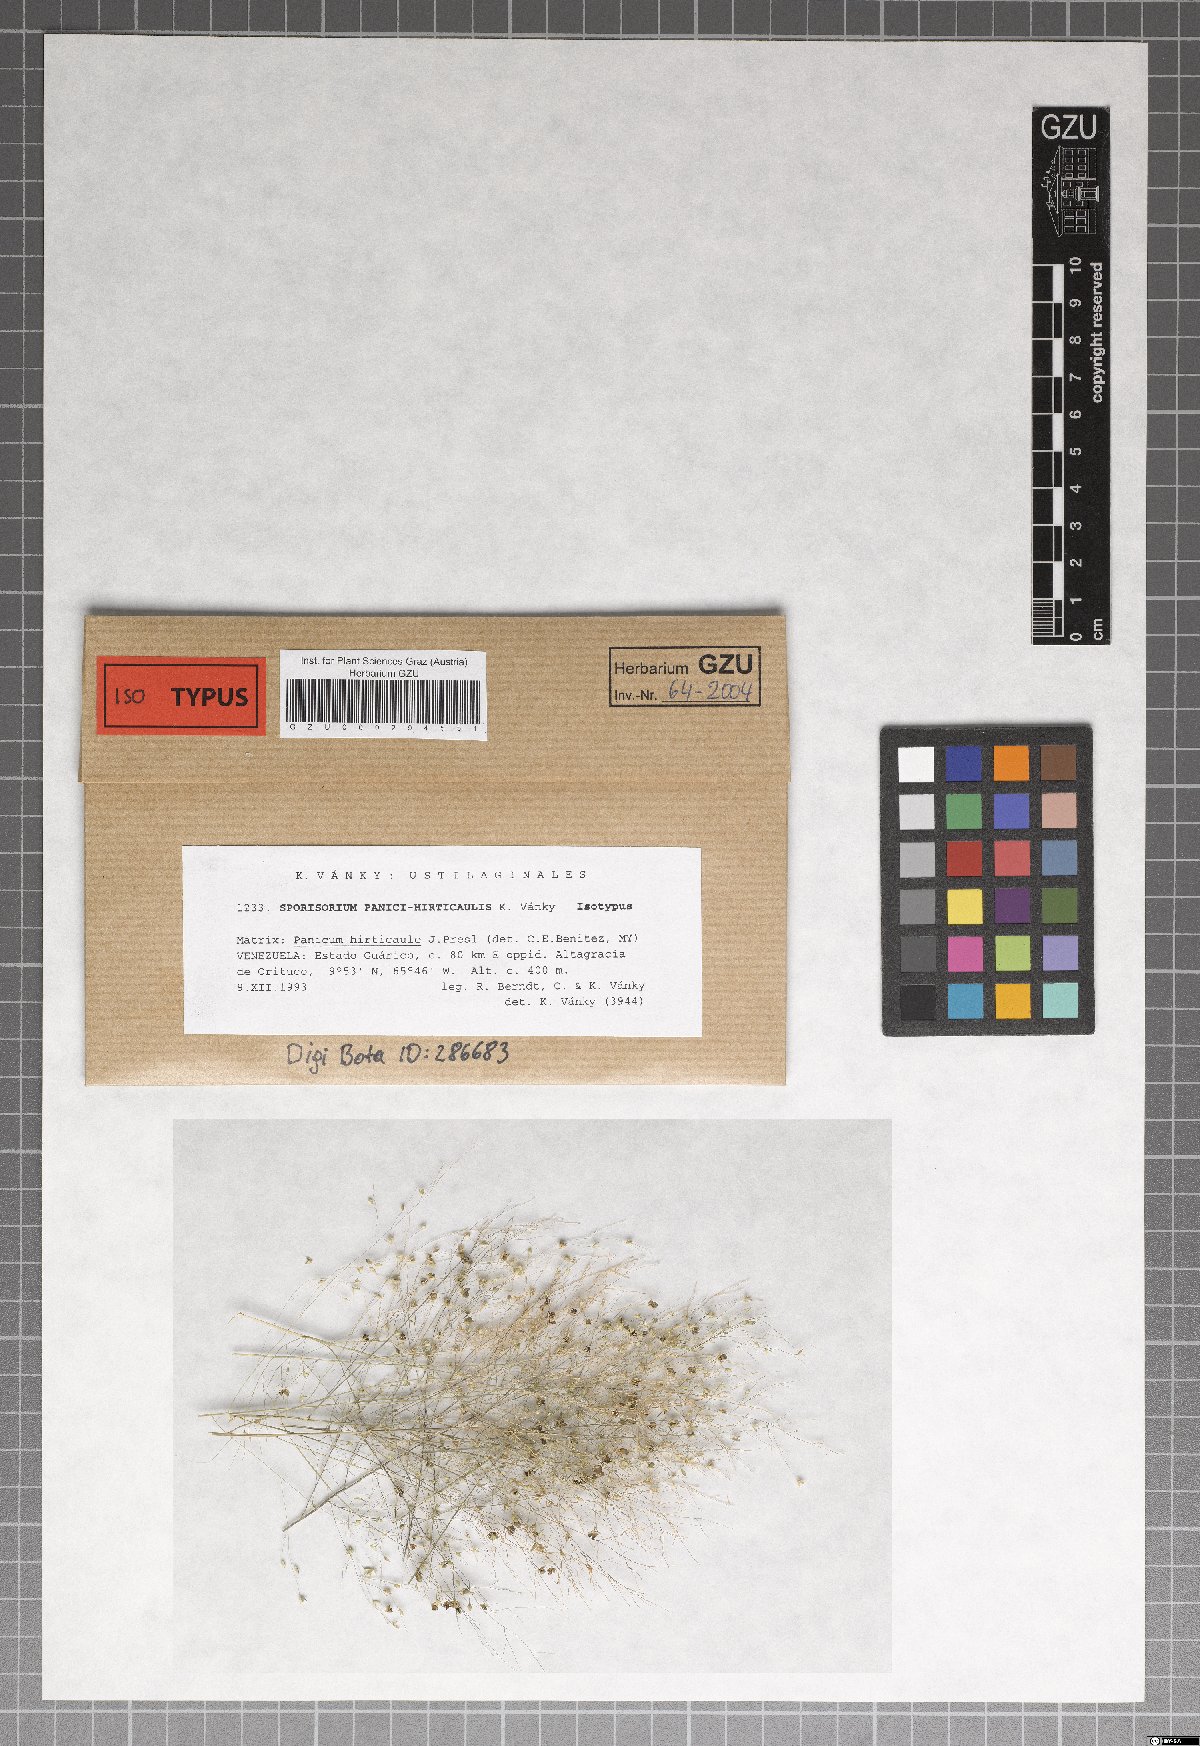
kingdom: Fungi
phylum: Basidiomycota
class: Ustilaginomycetes
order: Ustilaginales
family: Ustilaginaceae
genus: Sporisorium
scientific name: Sporisorium panici-hirticaulis
